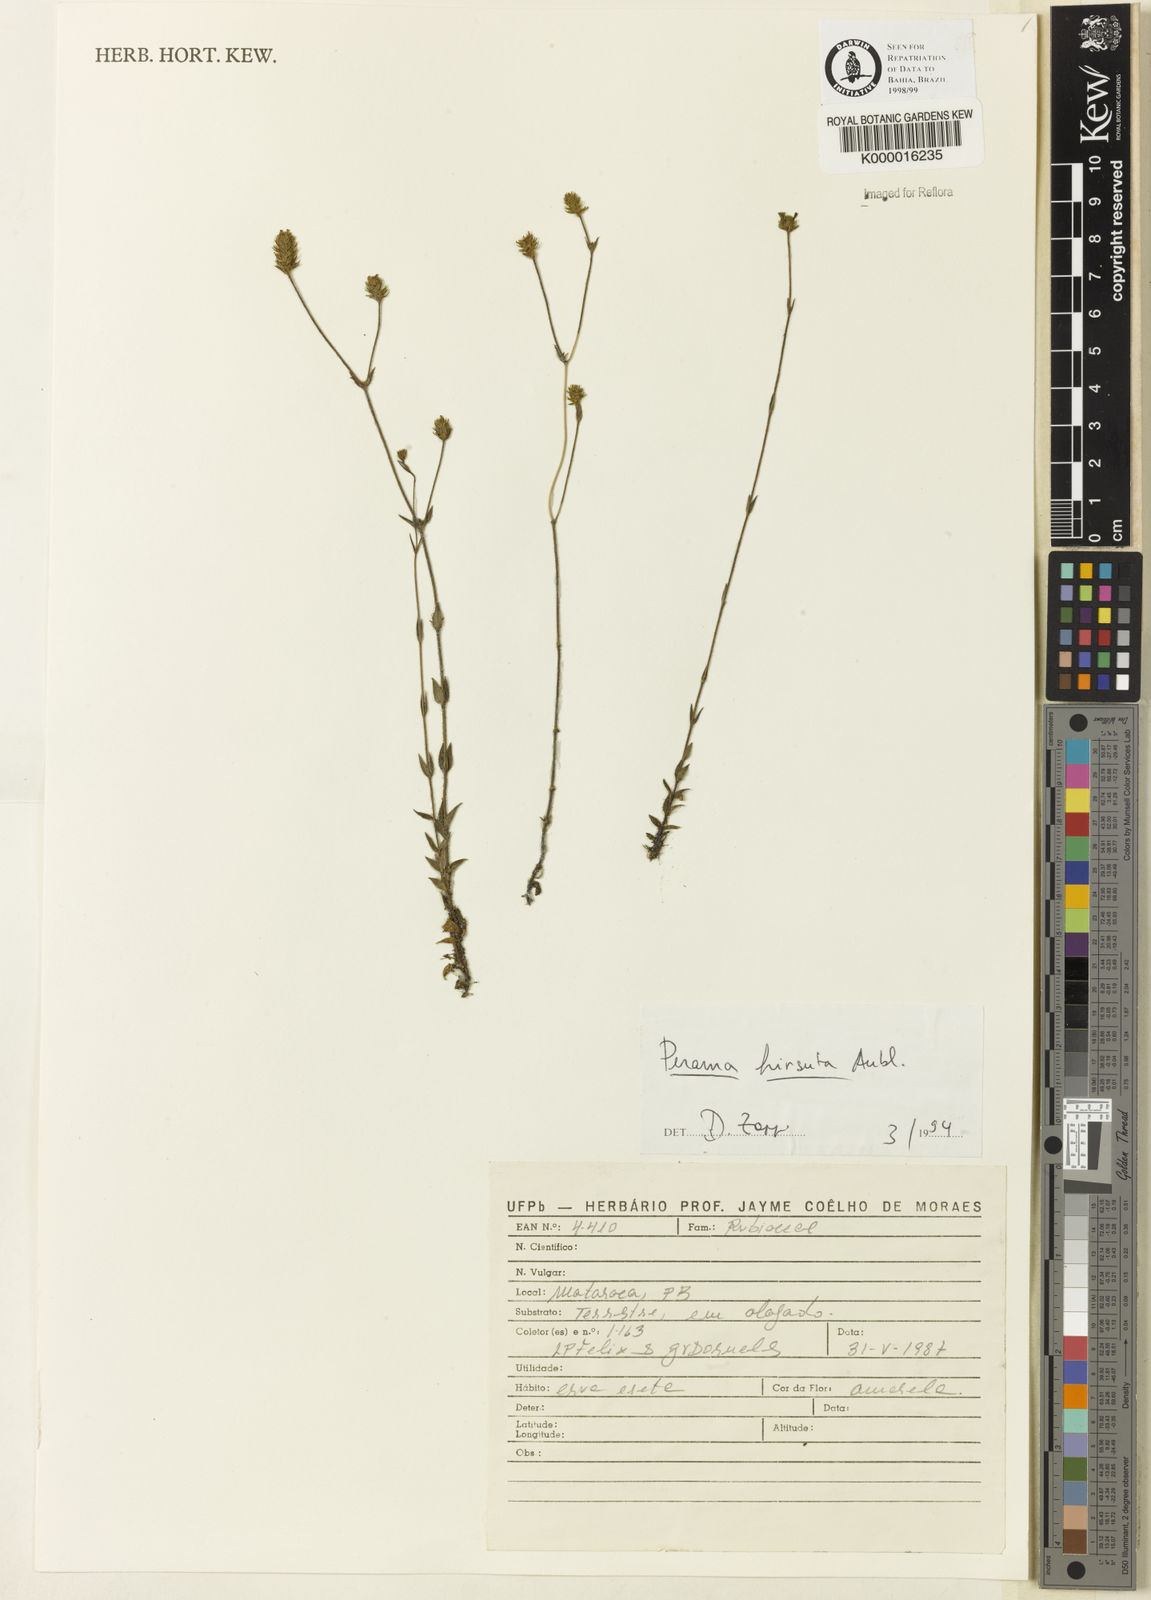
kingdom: Plantae
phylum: Tracheophyta
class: Magnoliopsida
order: Gentianales
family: Rubiaceae
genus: Perama
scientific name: Perama hirsuta
